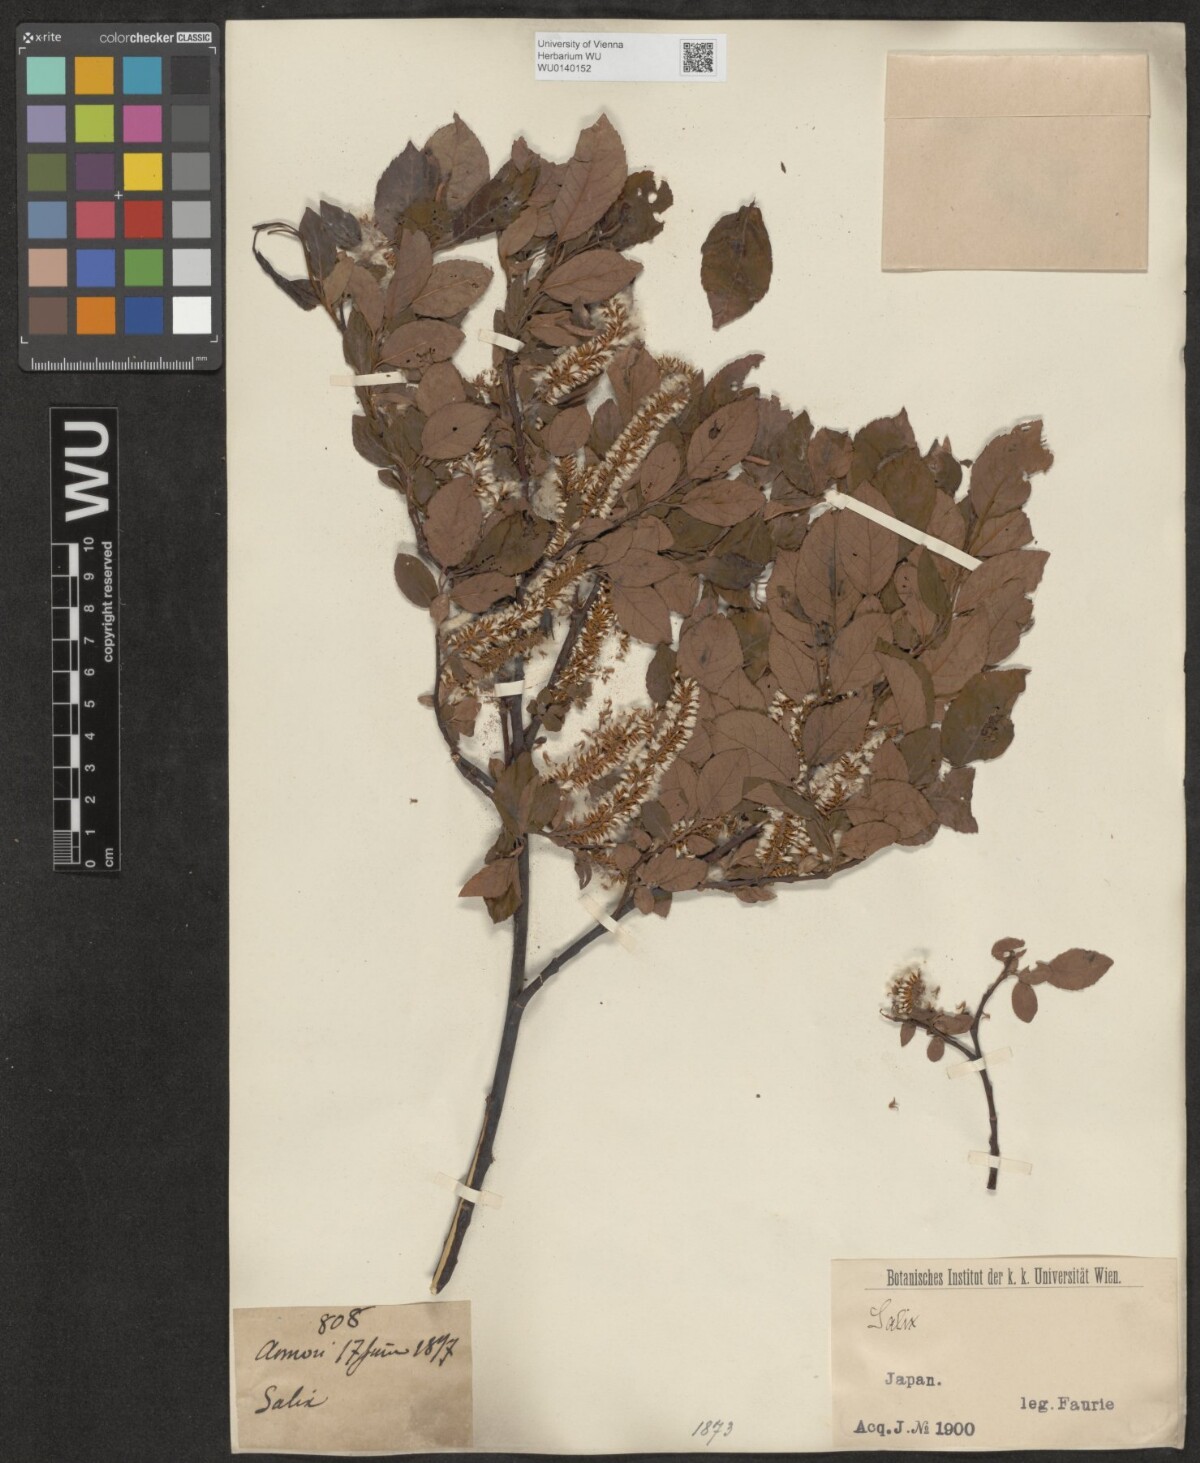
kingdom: Plantae
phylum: Tracheophyta
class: Magnoliopsida
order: Malpighiales
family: Salicaceae
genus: Salix
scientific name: Salix
